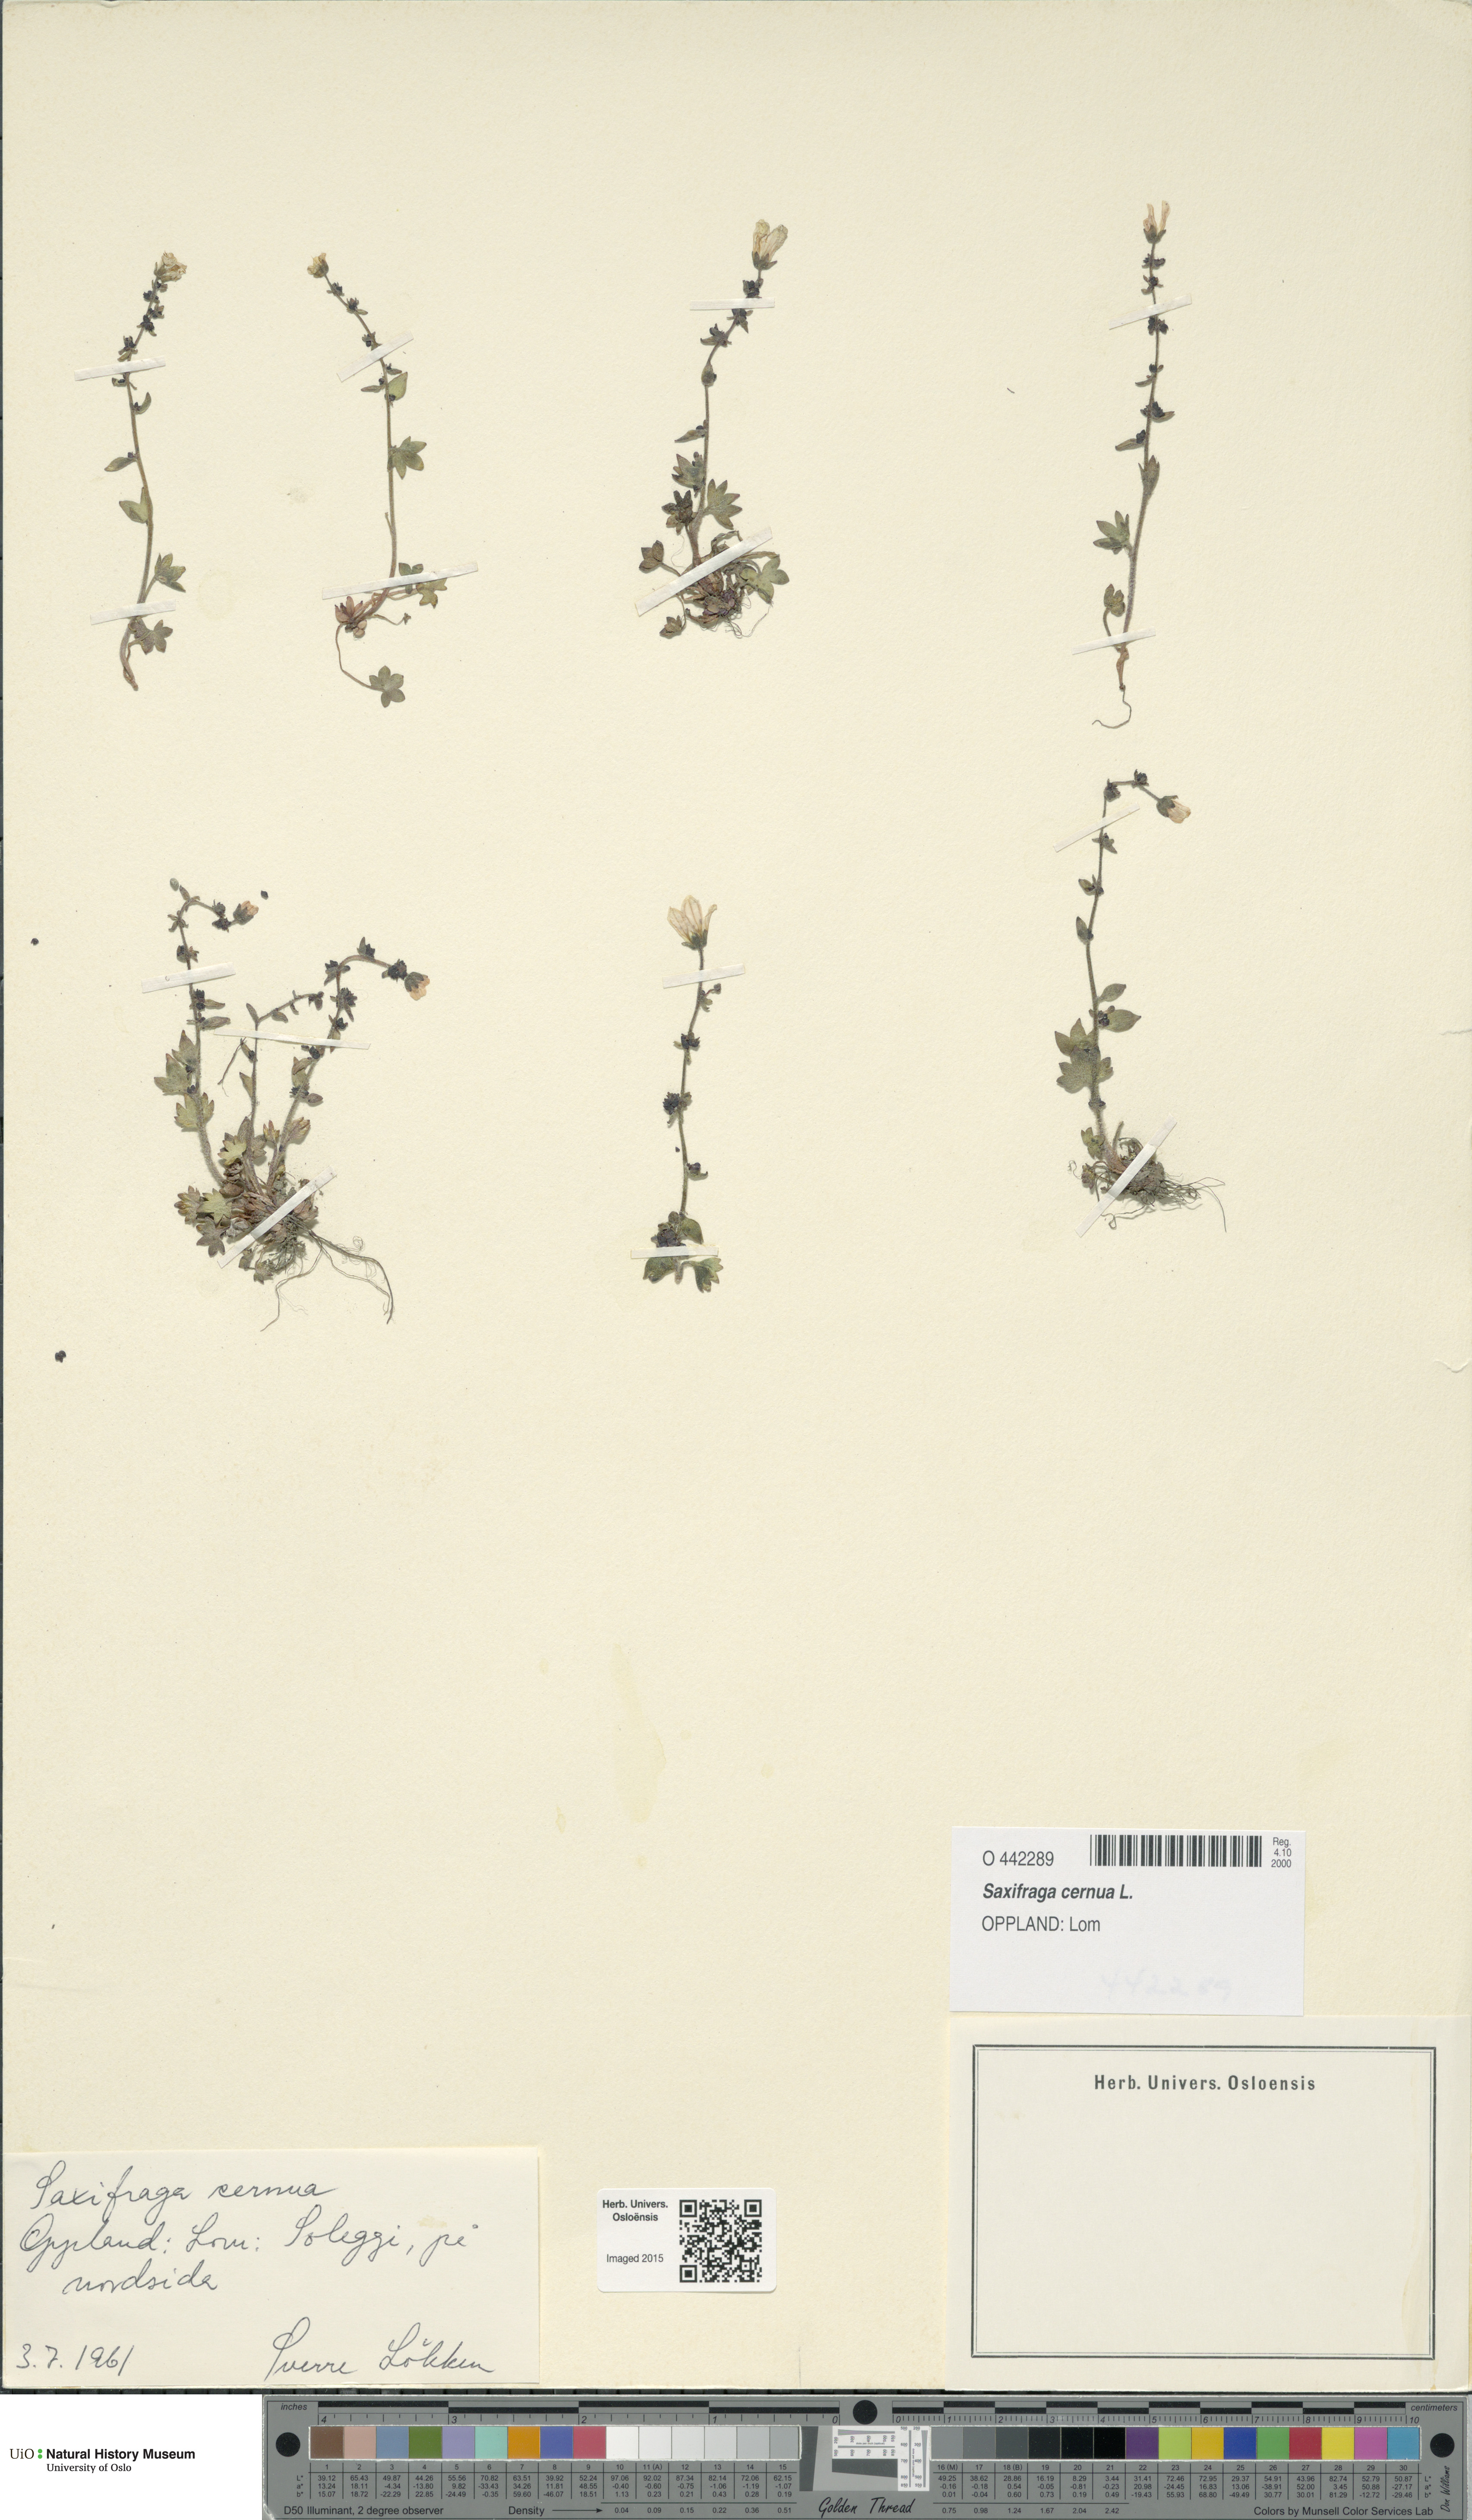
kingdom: Plantae
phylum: Tracheophyta
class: Magnoliopsida
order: Saxifragales
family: Saxifragaceae
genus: Saxifraga
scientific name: Saxifraga cernua
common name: Drooping saxifrage
